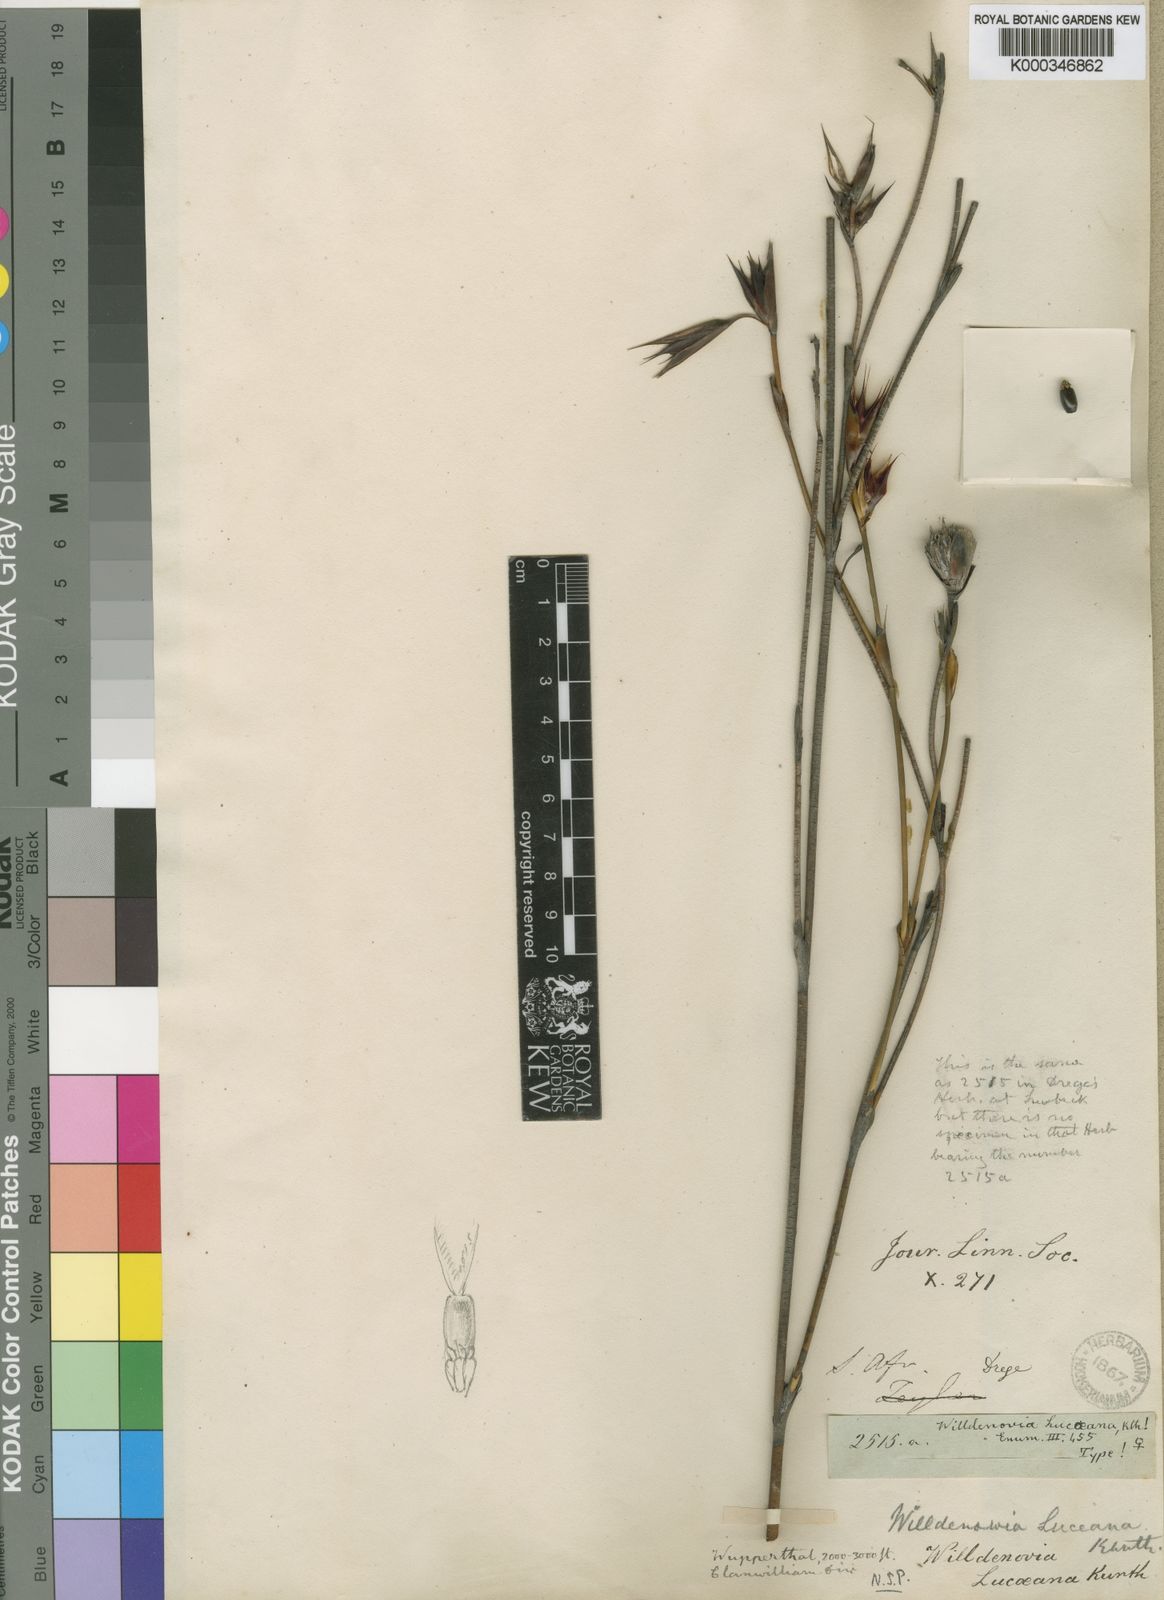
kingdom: Plantae
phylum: Tracheophyta
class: Liliopsida
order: Poales
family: Restionaceae
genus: Willdenowia
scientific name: Willdenowia humilis
